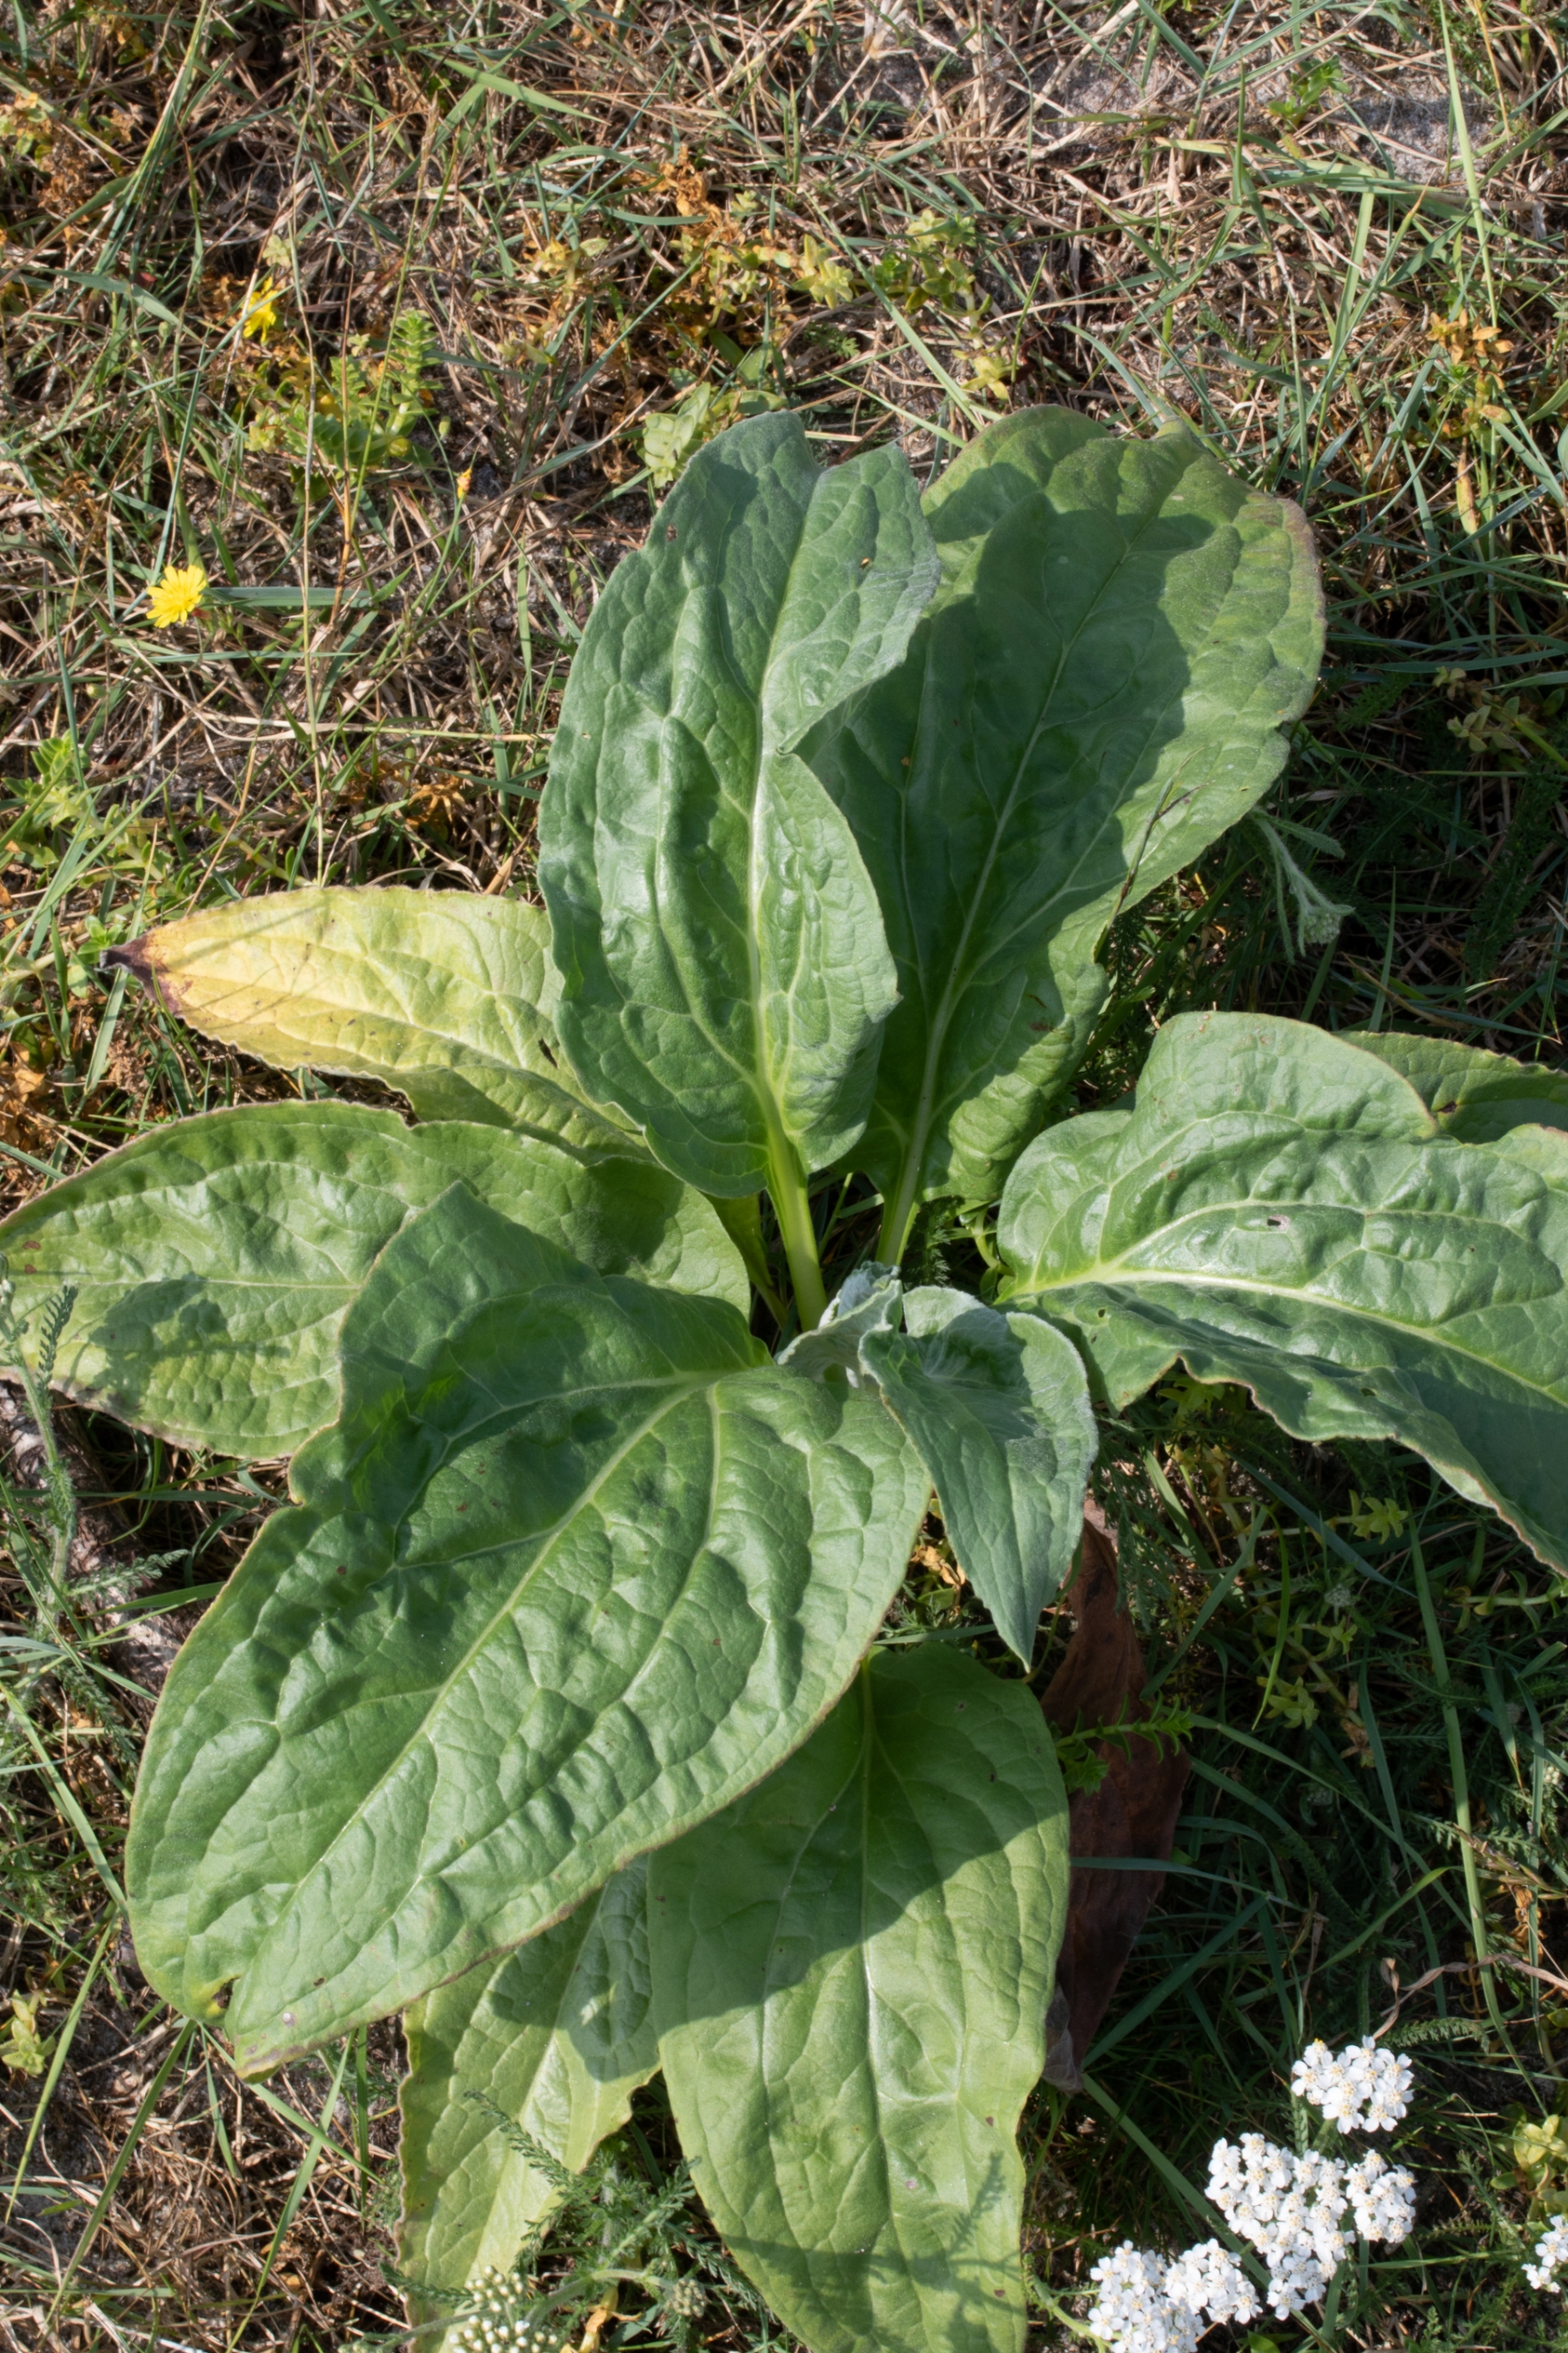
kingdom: Plantae
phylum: Tracheophyta
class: Magnoliopsida
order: Caryophyllales
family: Amaranthaceae
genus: Beta
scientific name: Beta maritima
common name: Strand-bede
